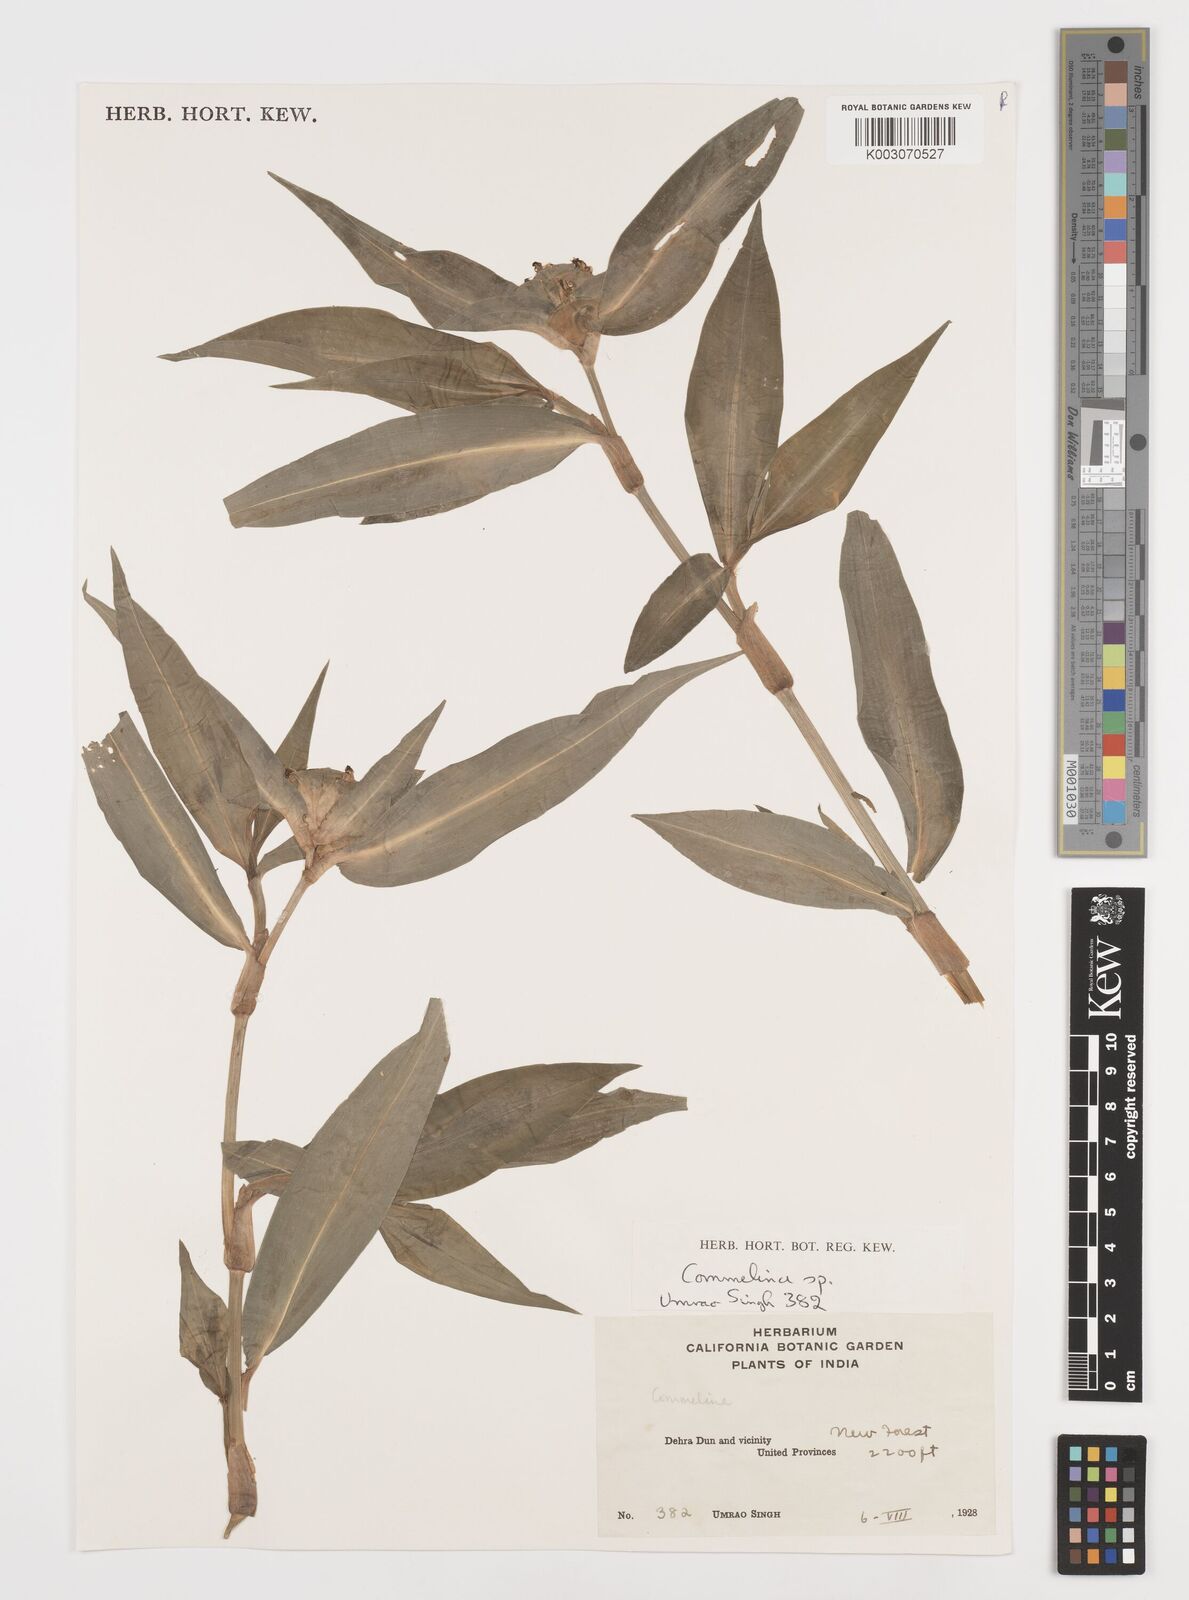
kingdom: Plantae
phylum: Tracheophyta
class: Liliopsida
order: Commelinales
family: Commelinaceae
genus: Commelina
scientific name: Commelina
